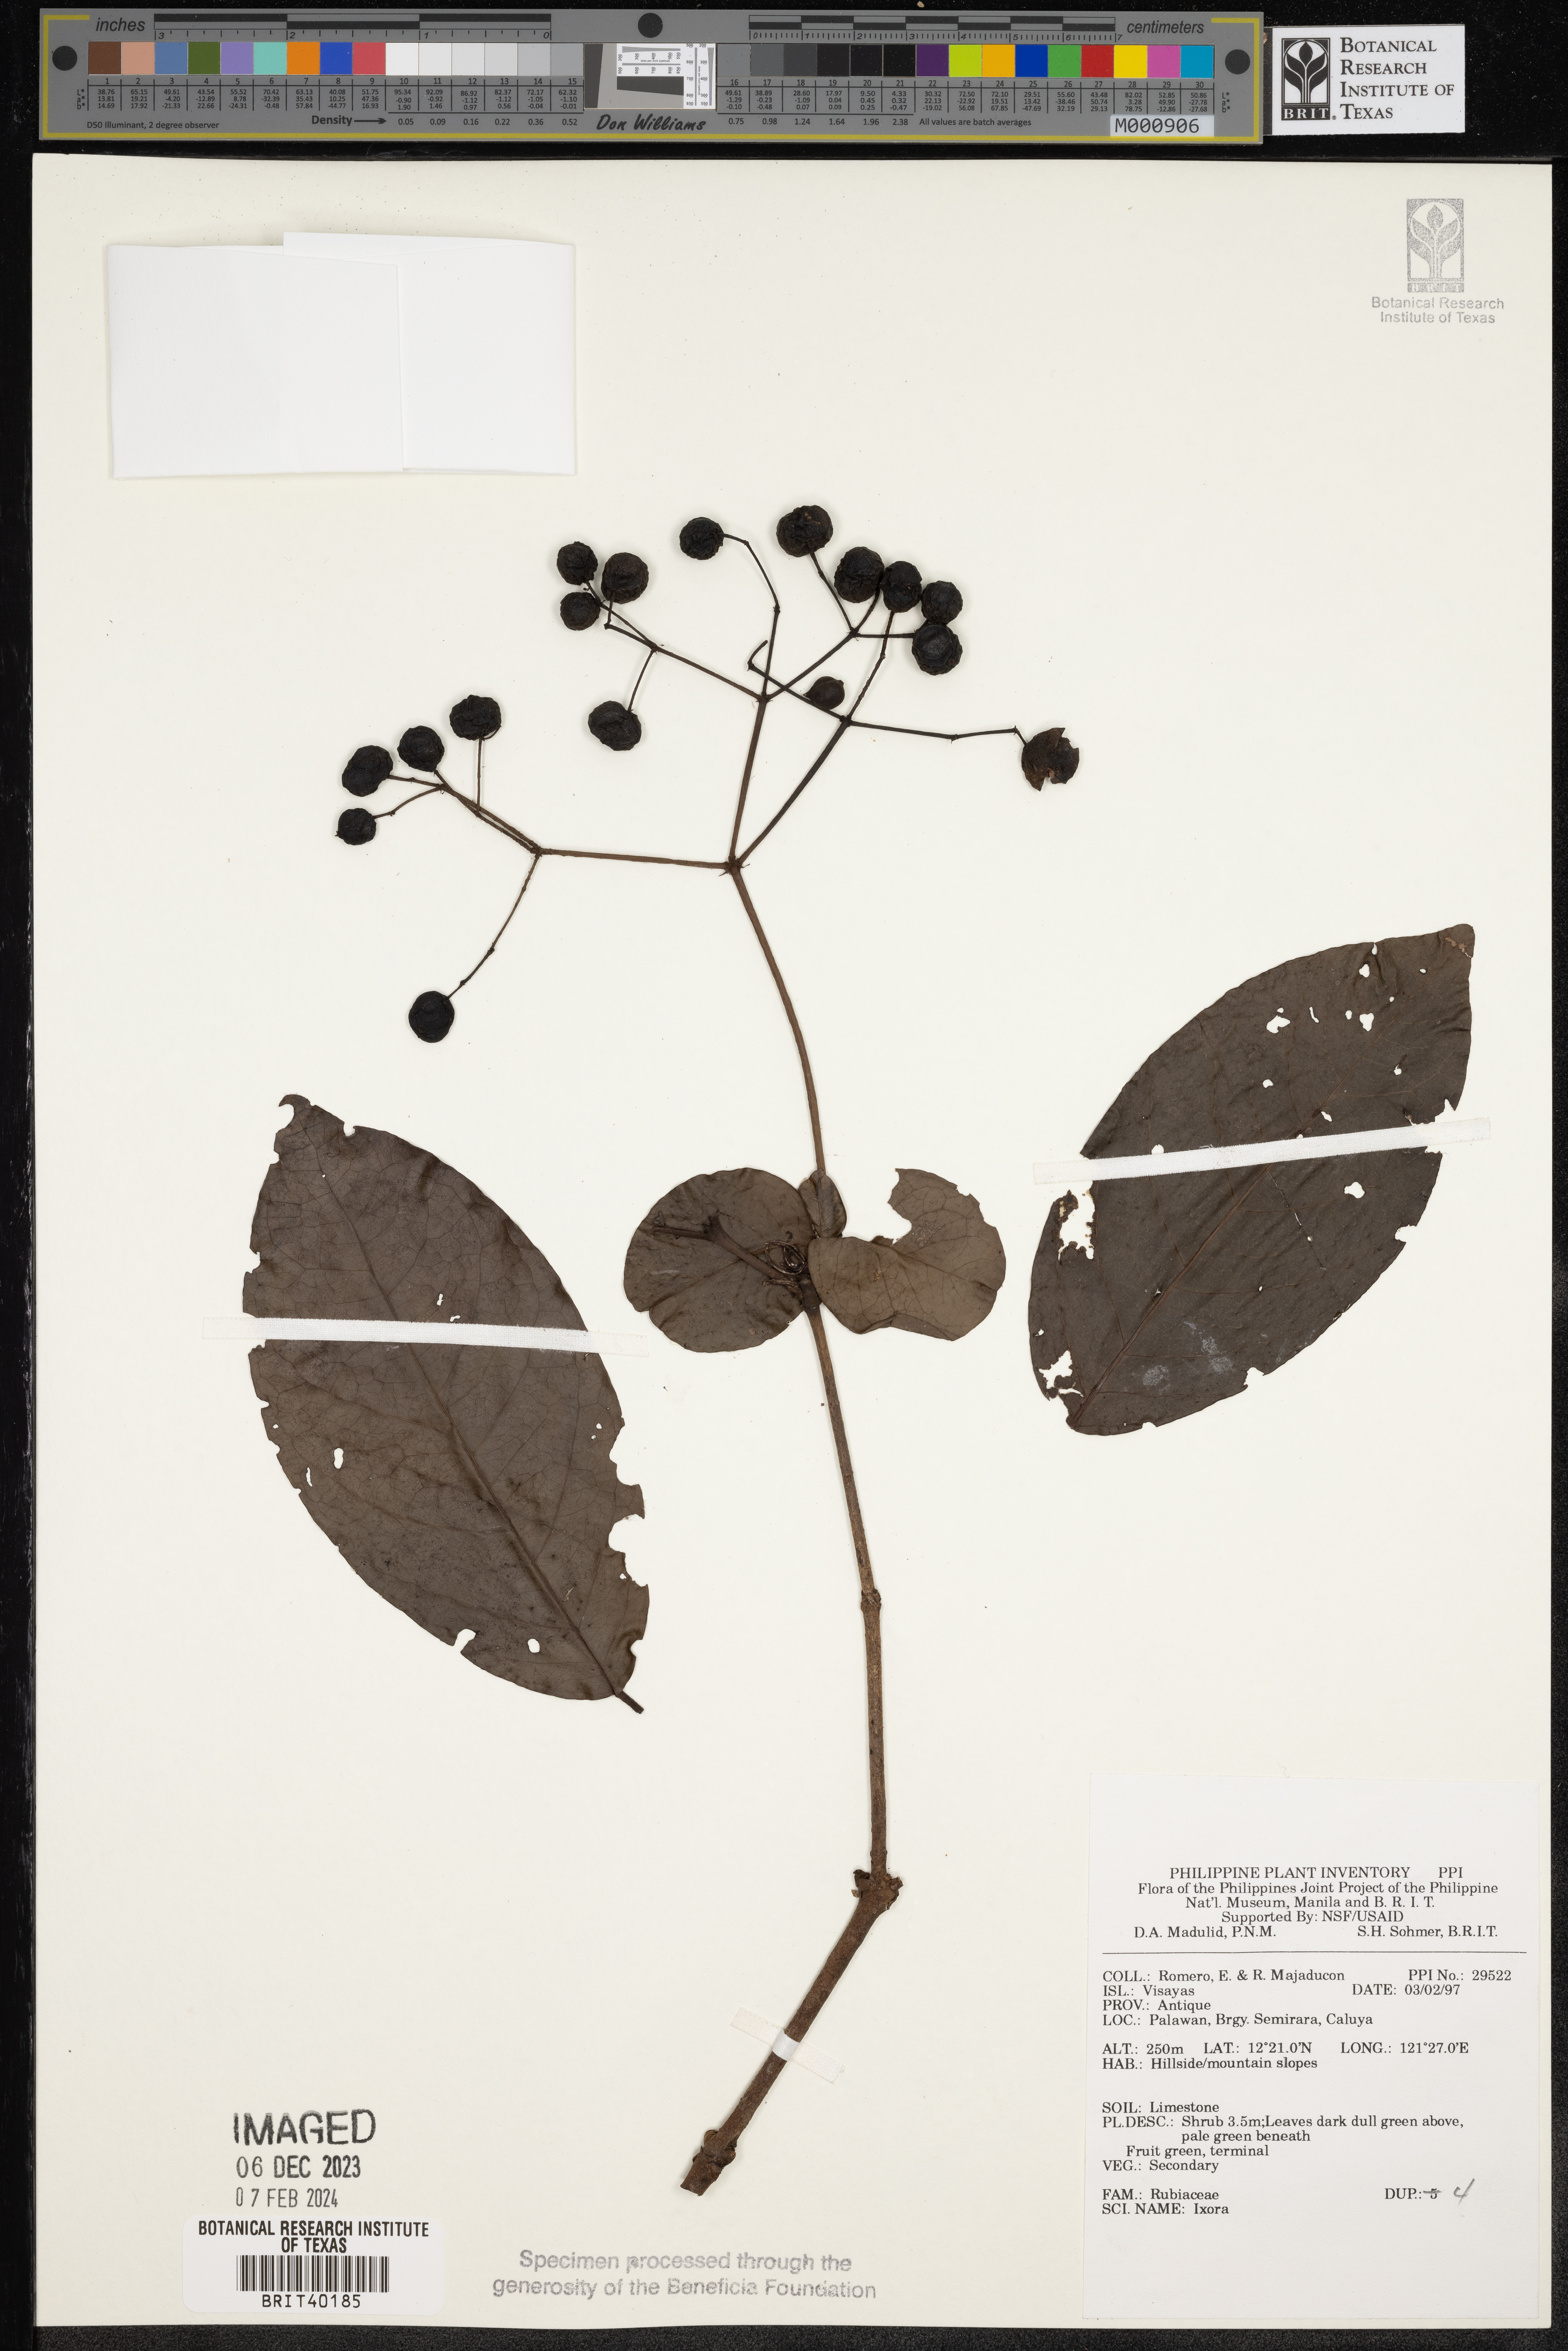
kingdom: Plantae
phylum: Tracheophyta
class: Magnoliopsida
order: Gentianales
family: Rubiaceae
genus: Ixora
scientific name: Ixora
